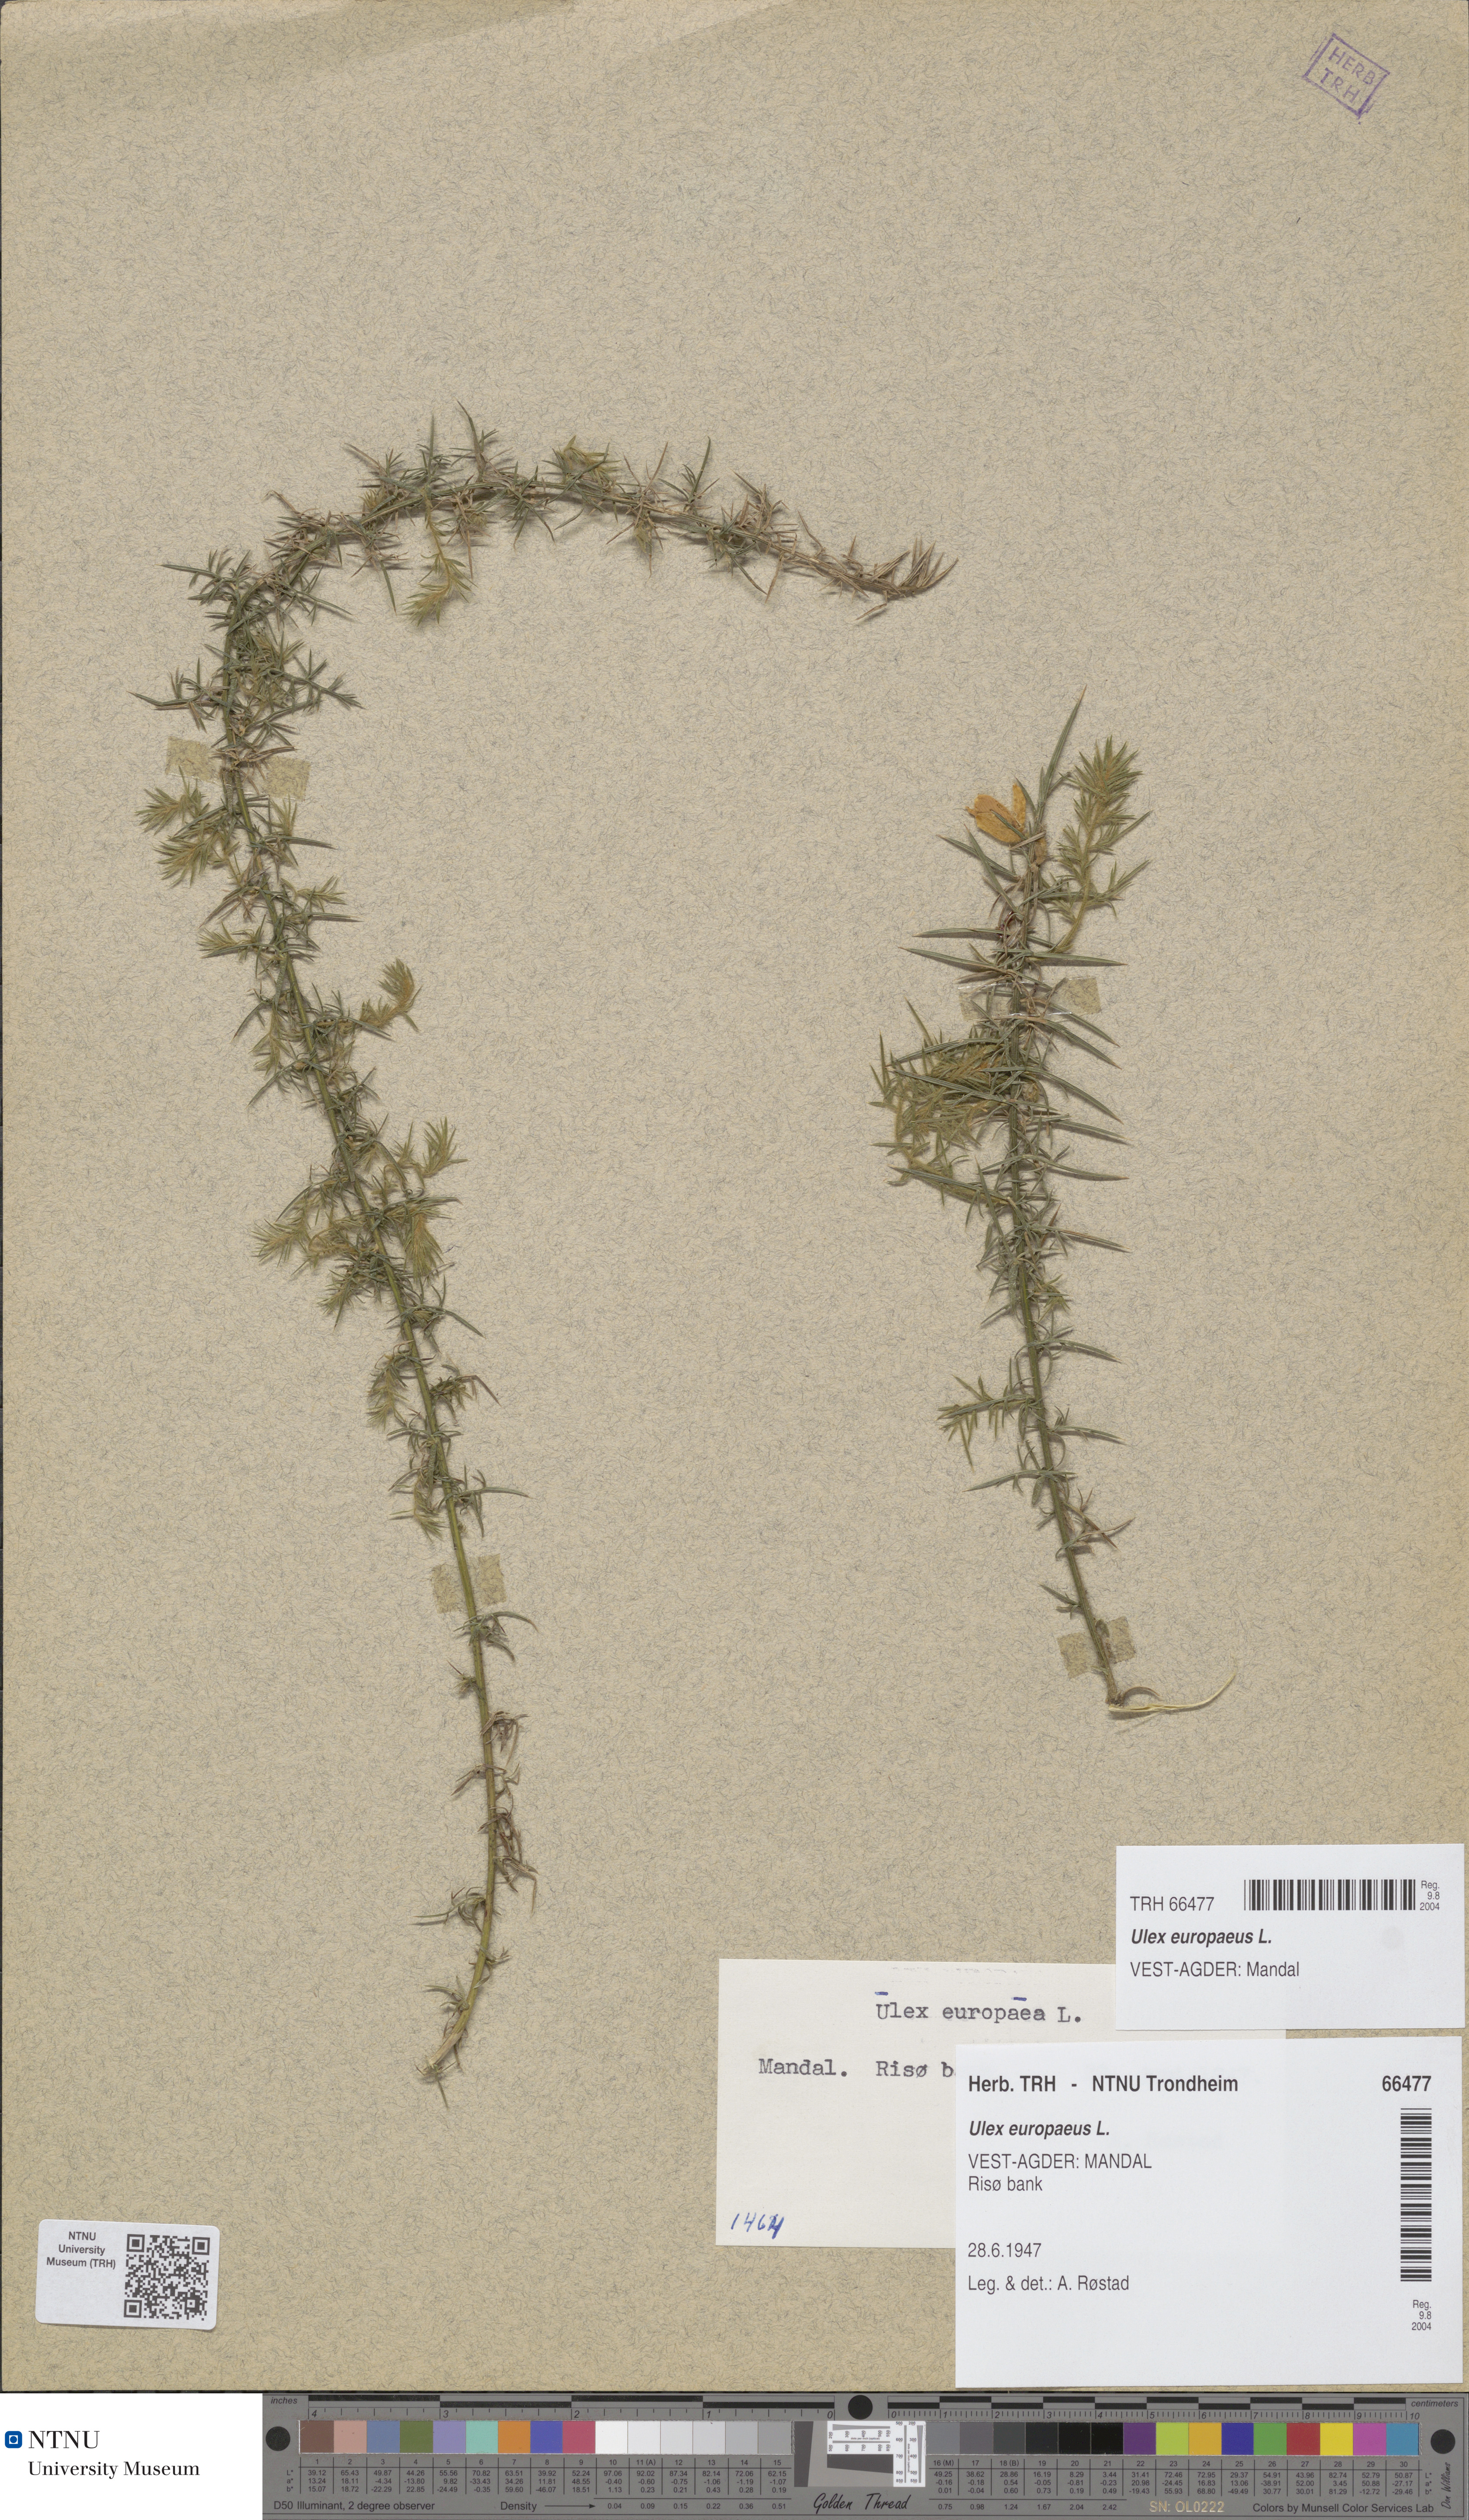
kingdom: Plantae
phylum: Tracheophyta
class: Magnoliopsida
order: Fabales
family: Fabaceae
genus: Ulex
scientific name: Ulex europaeus
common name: Common gorse
